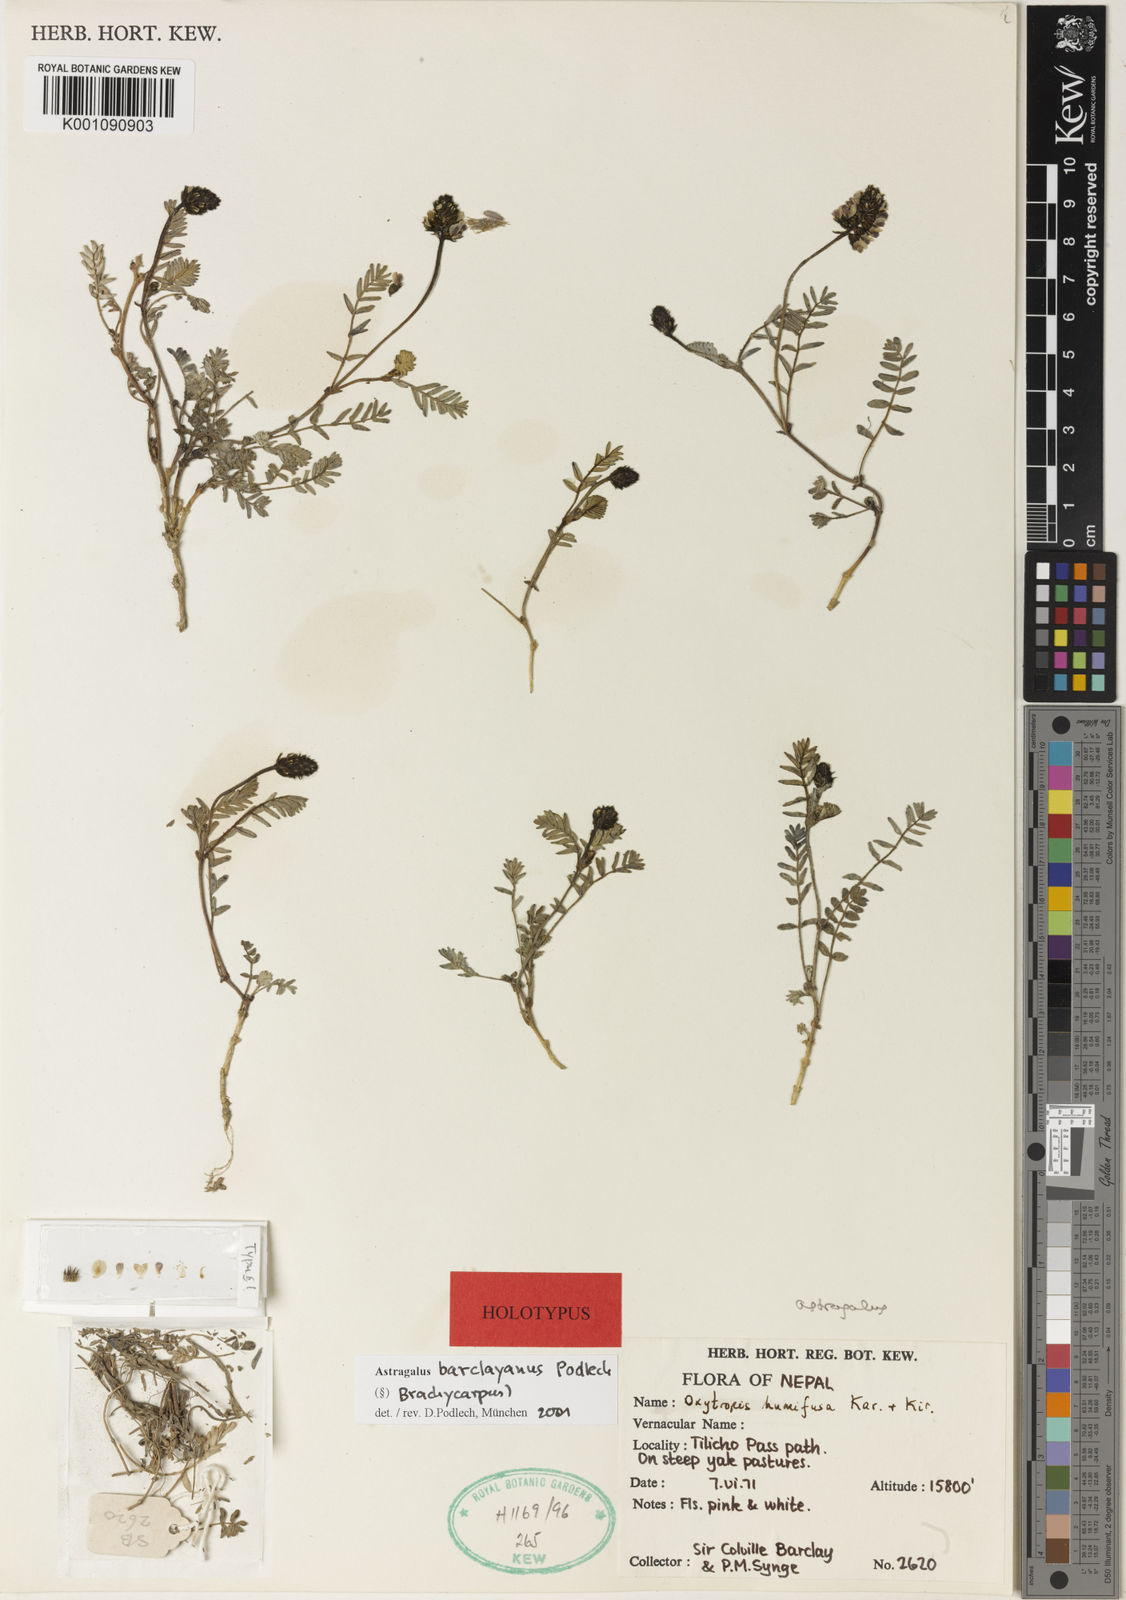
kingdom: Plantae
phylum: Tracheophyta
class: Magnoliopsida
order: Fabales
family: Fabaceae
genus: Astragalus
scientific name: Astragalus
